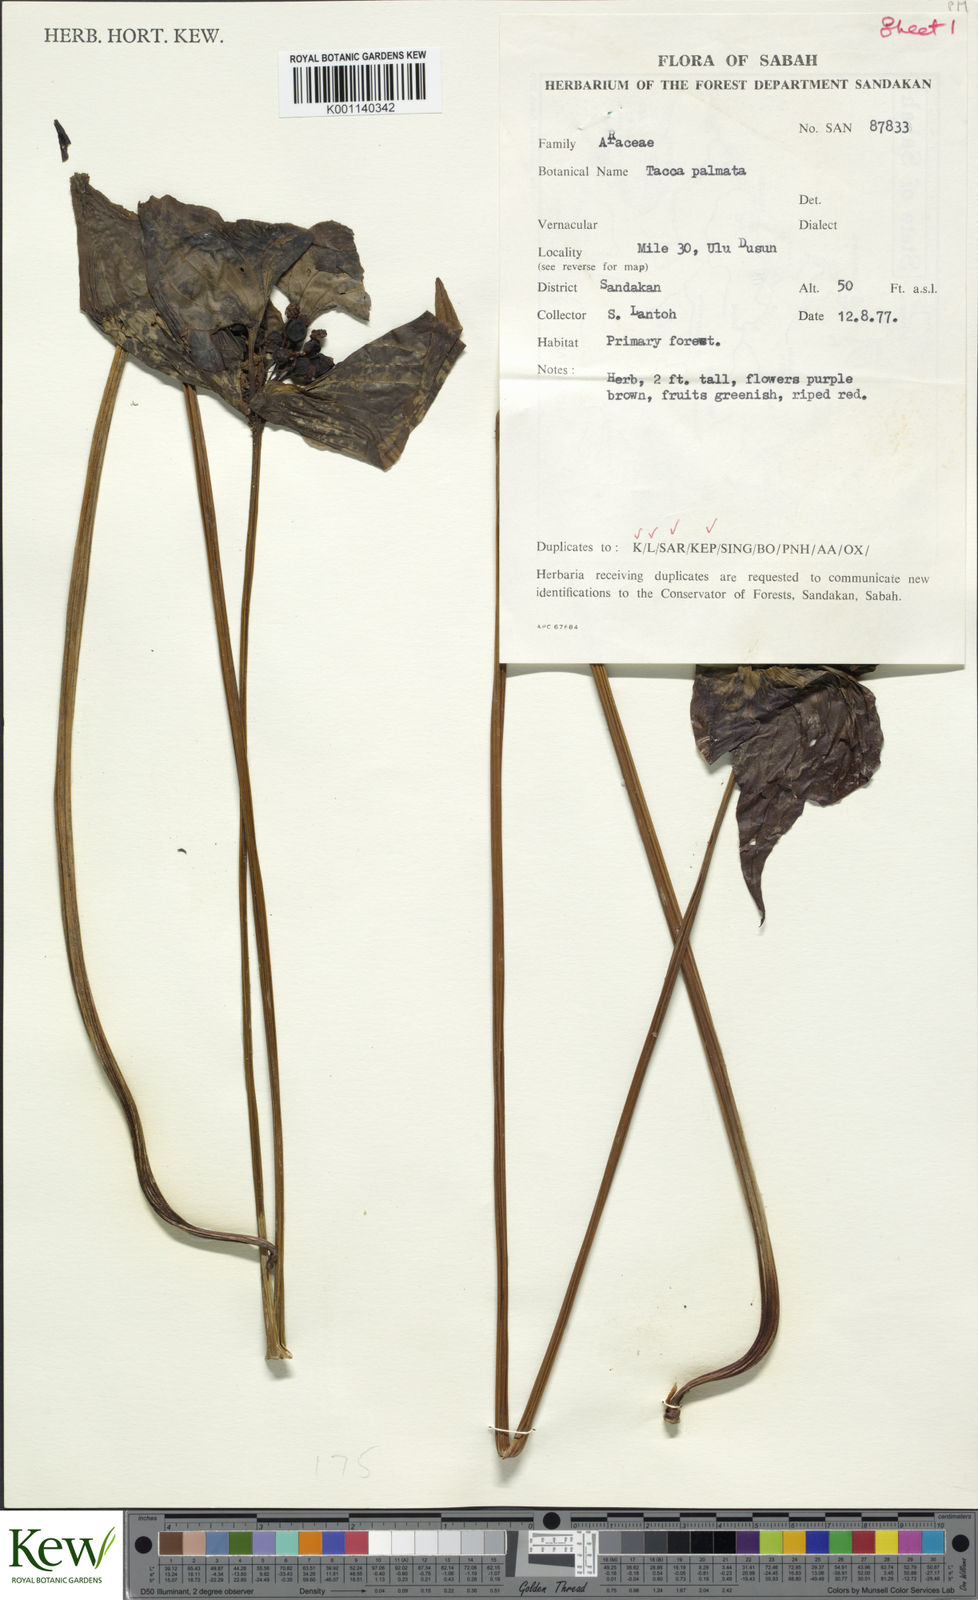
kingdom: Plantae
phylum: Tracheophyta
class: Liliopsida
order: Dioscoreales
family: Dioscoreaceae
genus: Tacca
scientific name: Tacca palmata
